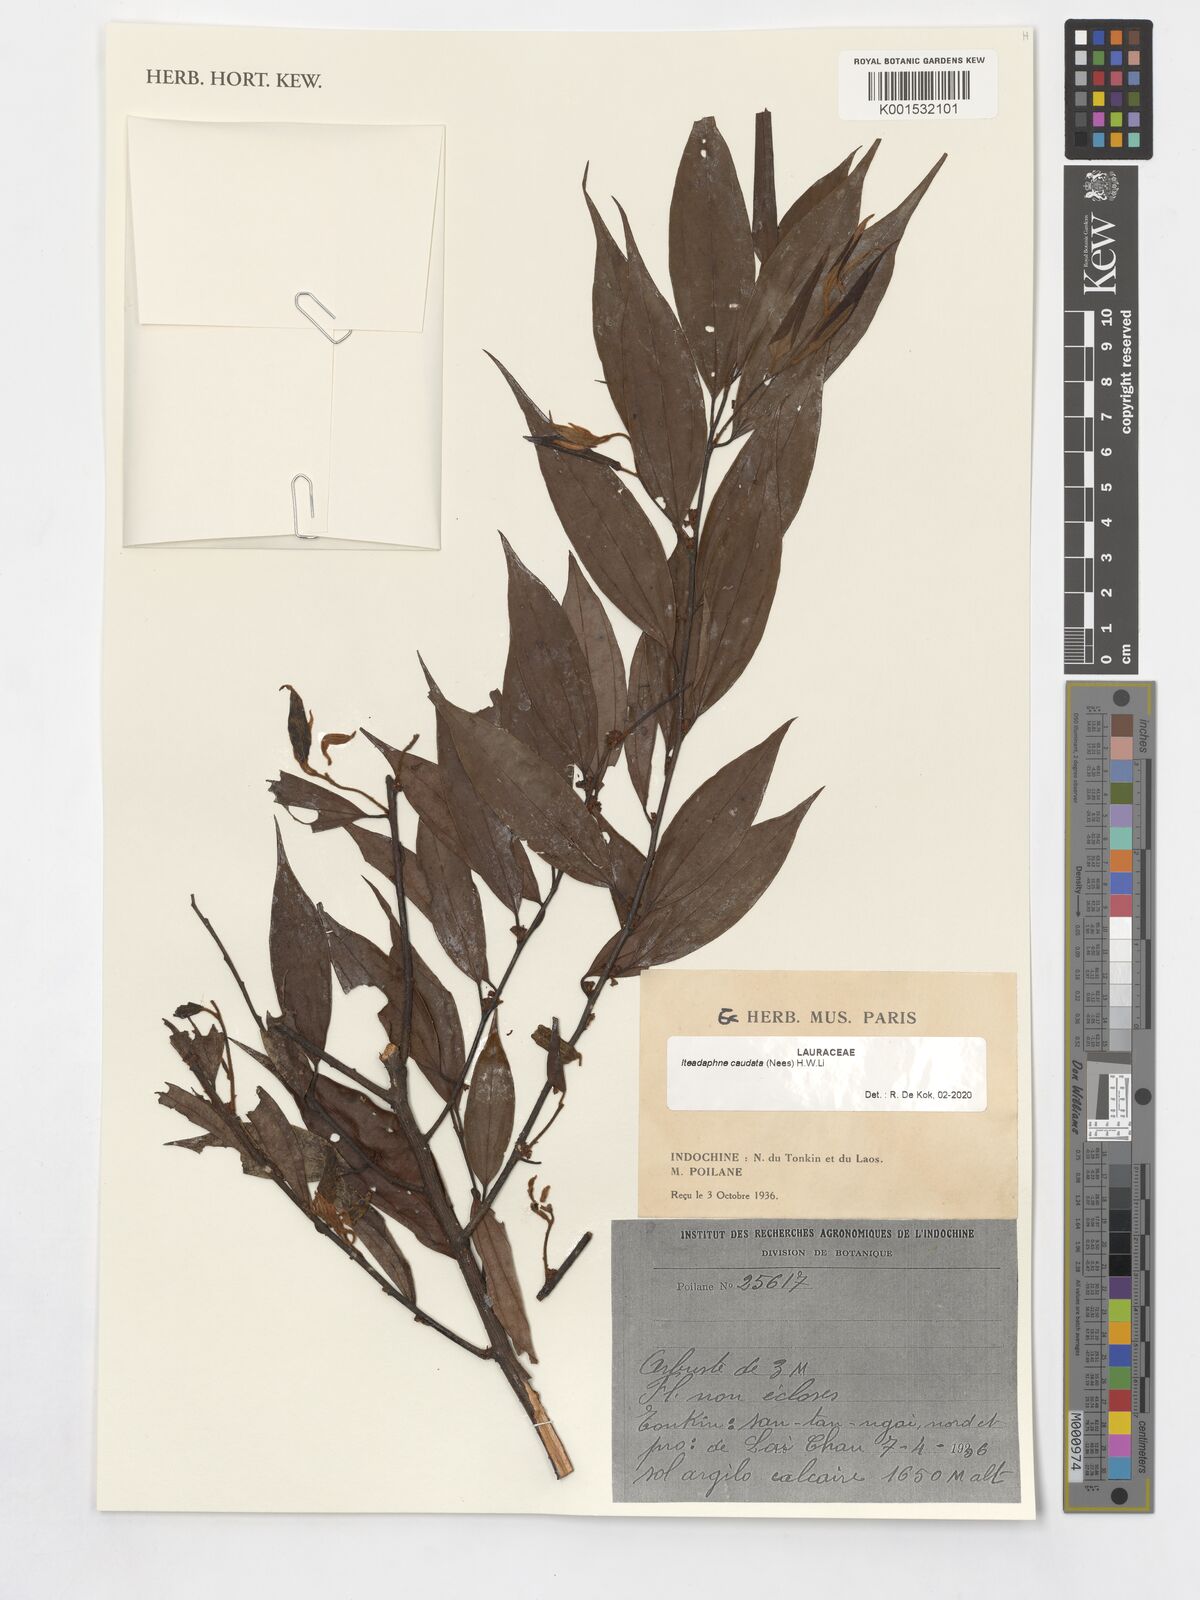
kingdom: Plantae
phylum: Tracheophyta
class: Magnoliopsida
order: Laurales
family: Lauraceae
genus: Lindera
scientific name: Lindera caudata
